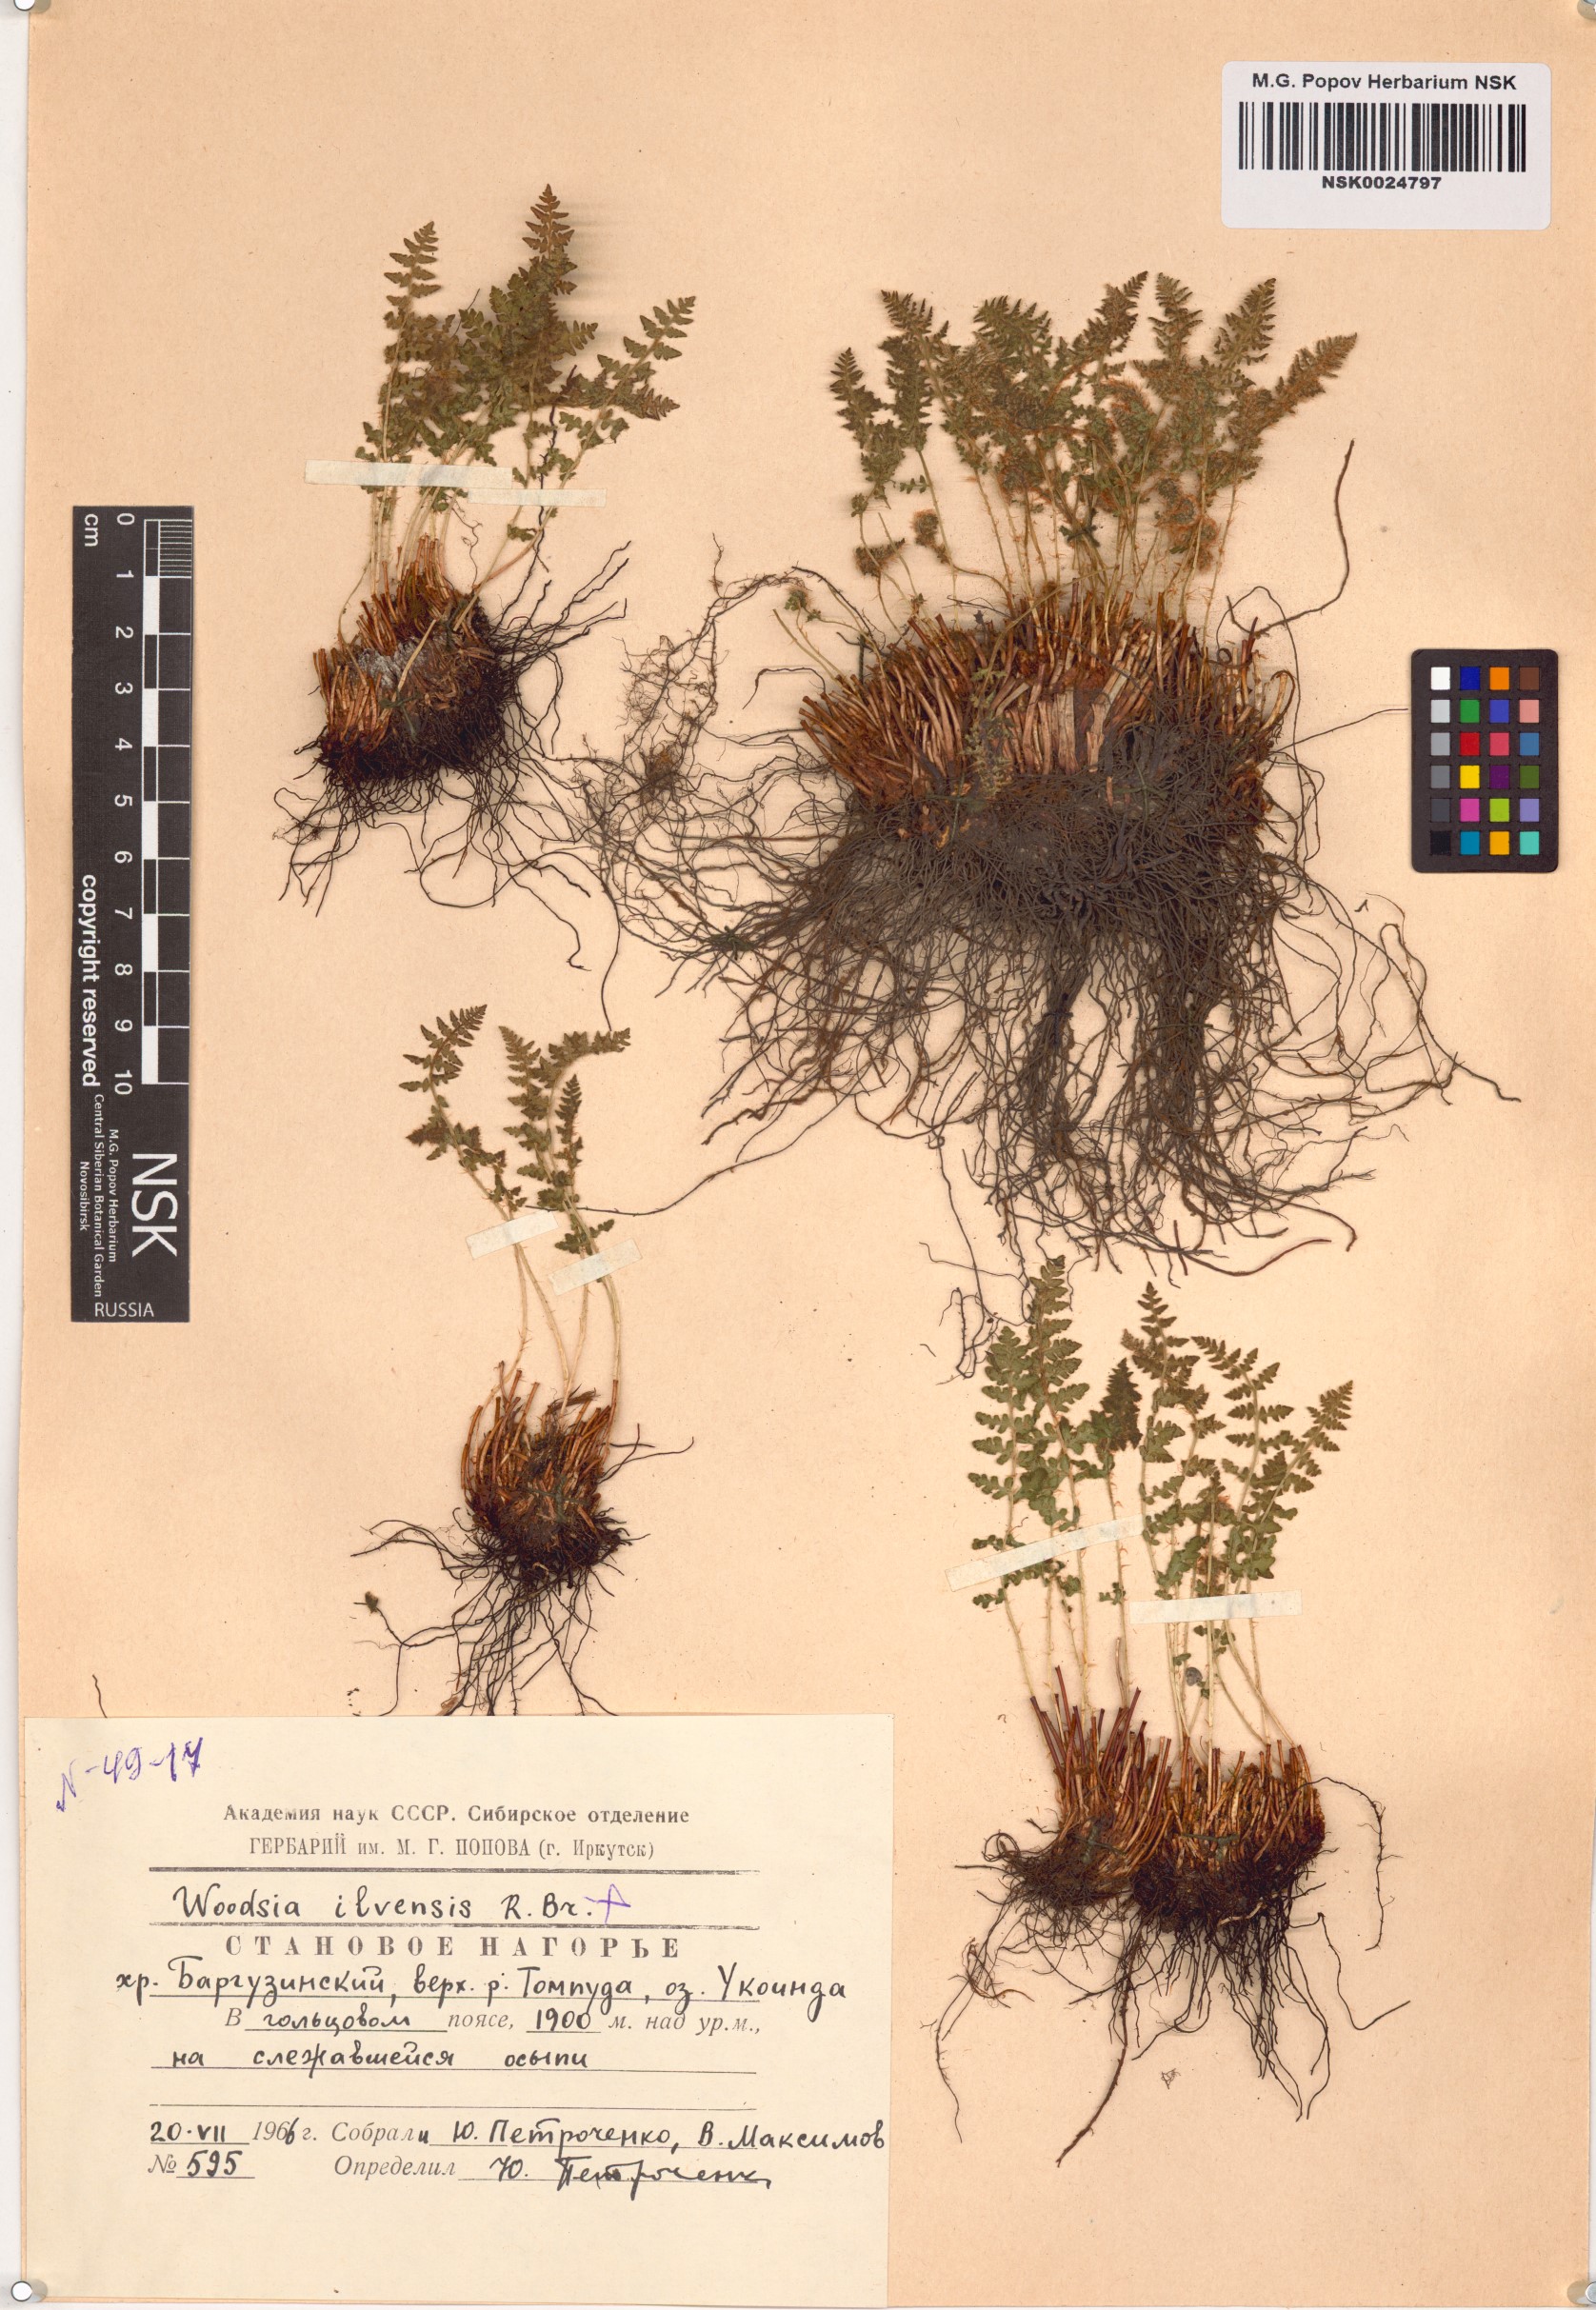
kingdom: Plantae
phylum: Tracheophyta
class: Polypodiopsida
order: Polypodiales
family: Woodsiaceae
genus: Woodsia
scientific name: Woodsia ilvensis
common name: Fragrant woodsia
